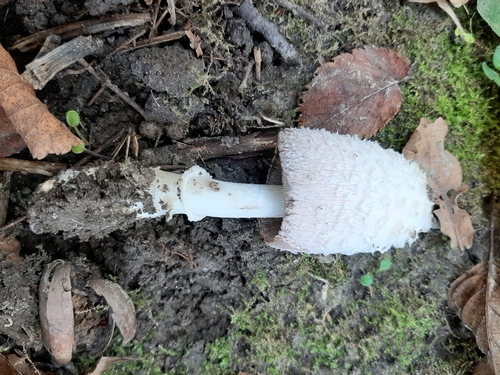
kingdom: Fungi
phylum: Basidiomycota
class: Agaricomycetes
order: Agaricales
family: Agaricaceae
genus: Coprinus
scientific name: Coprinus comatus
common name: Lawyer's wig
